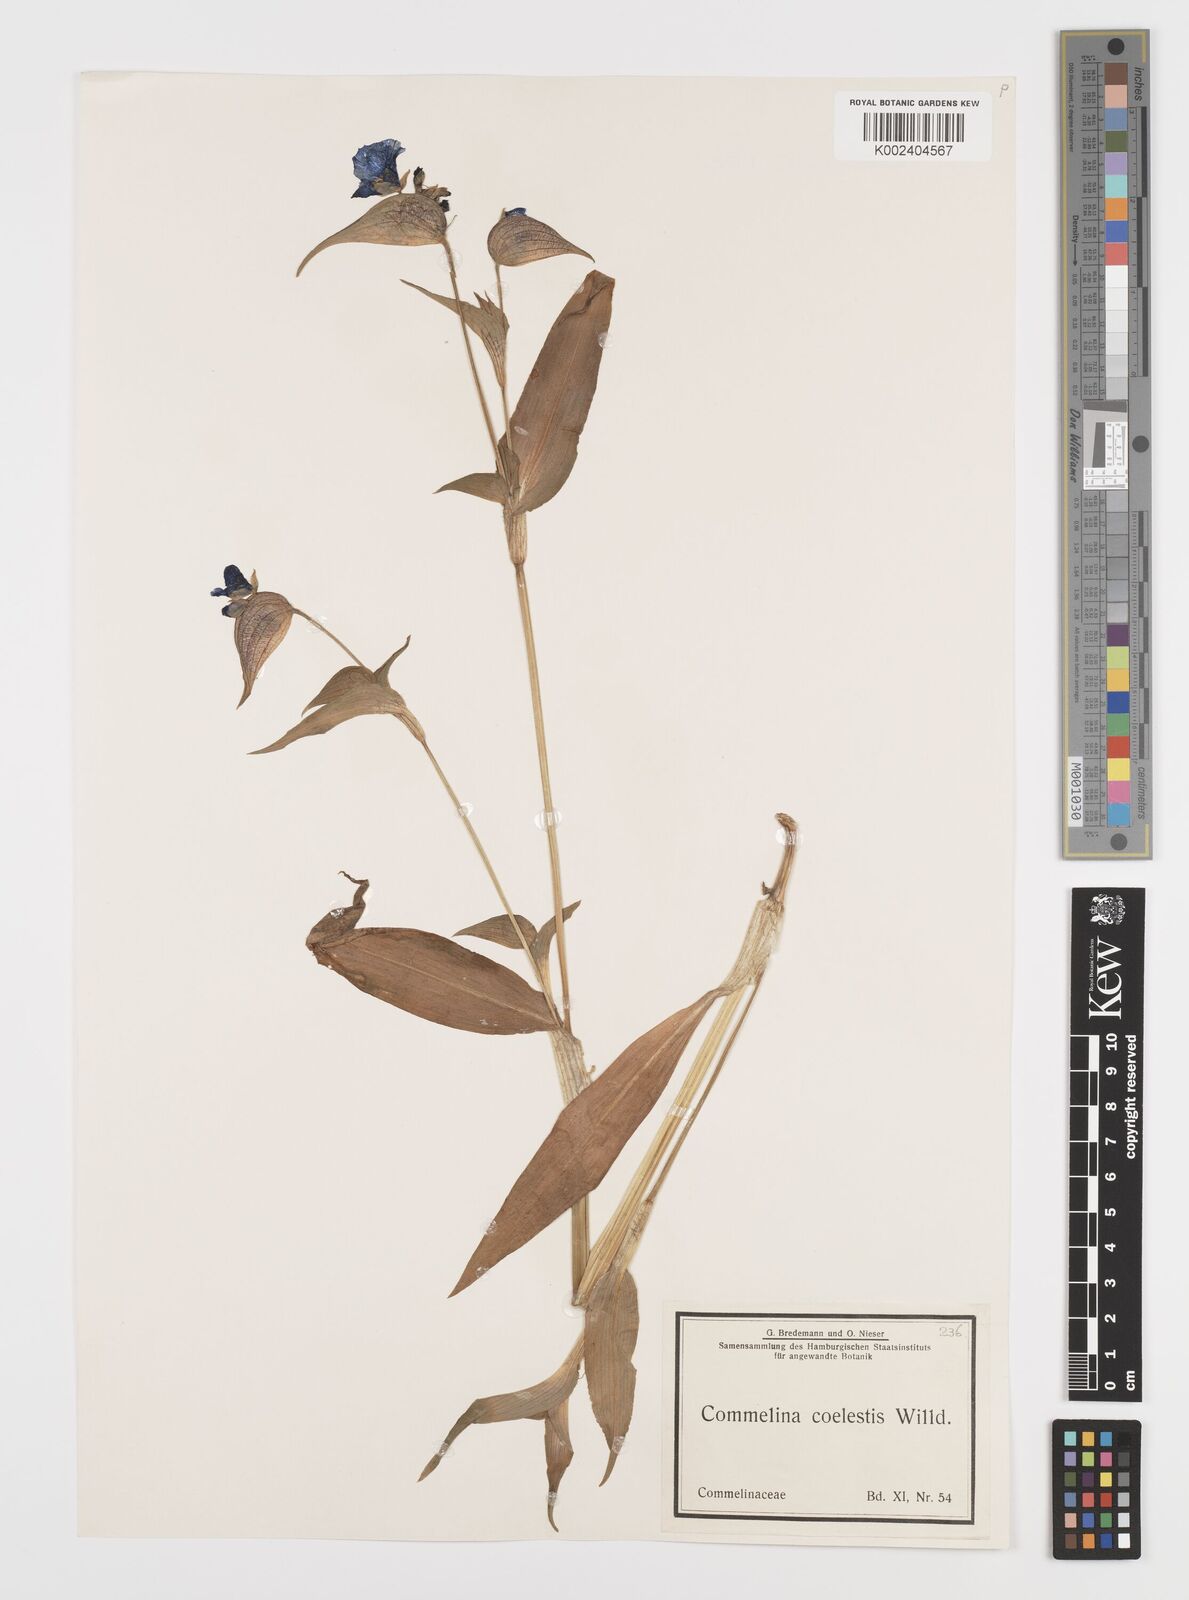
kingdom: Plantae
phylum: Tracheophyta
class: Liliopsida
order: Commelinales
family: Commelinaceae
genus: Commelina
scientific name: Commelina tuberosa
